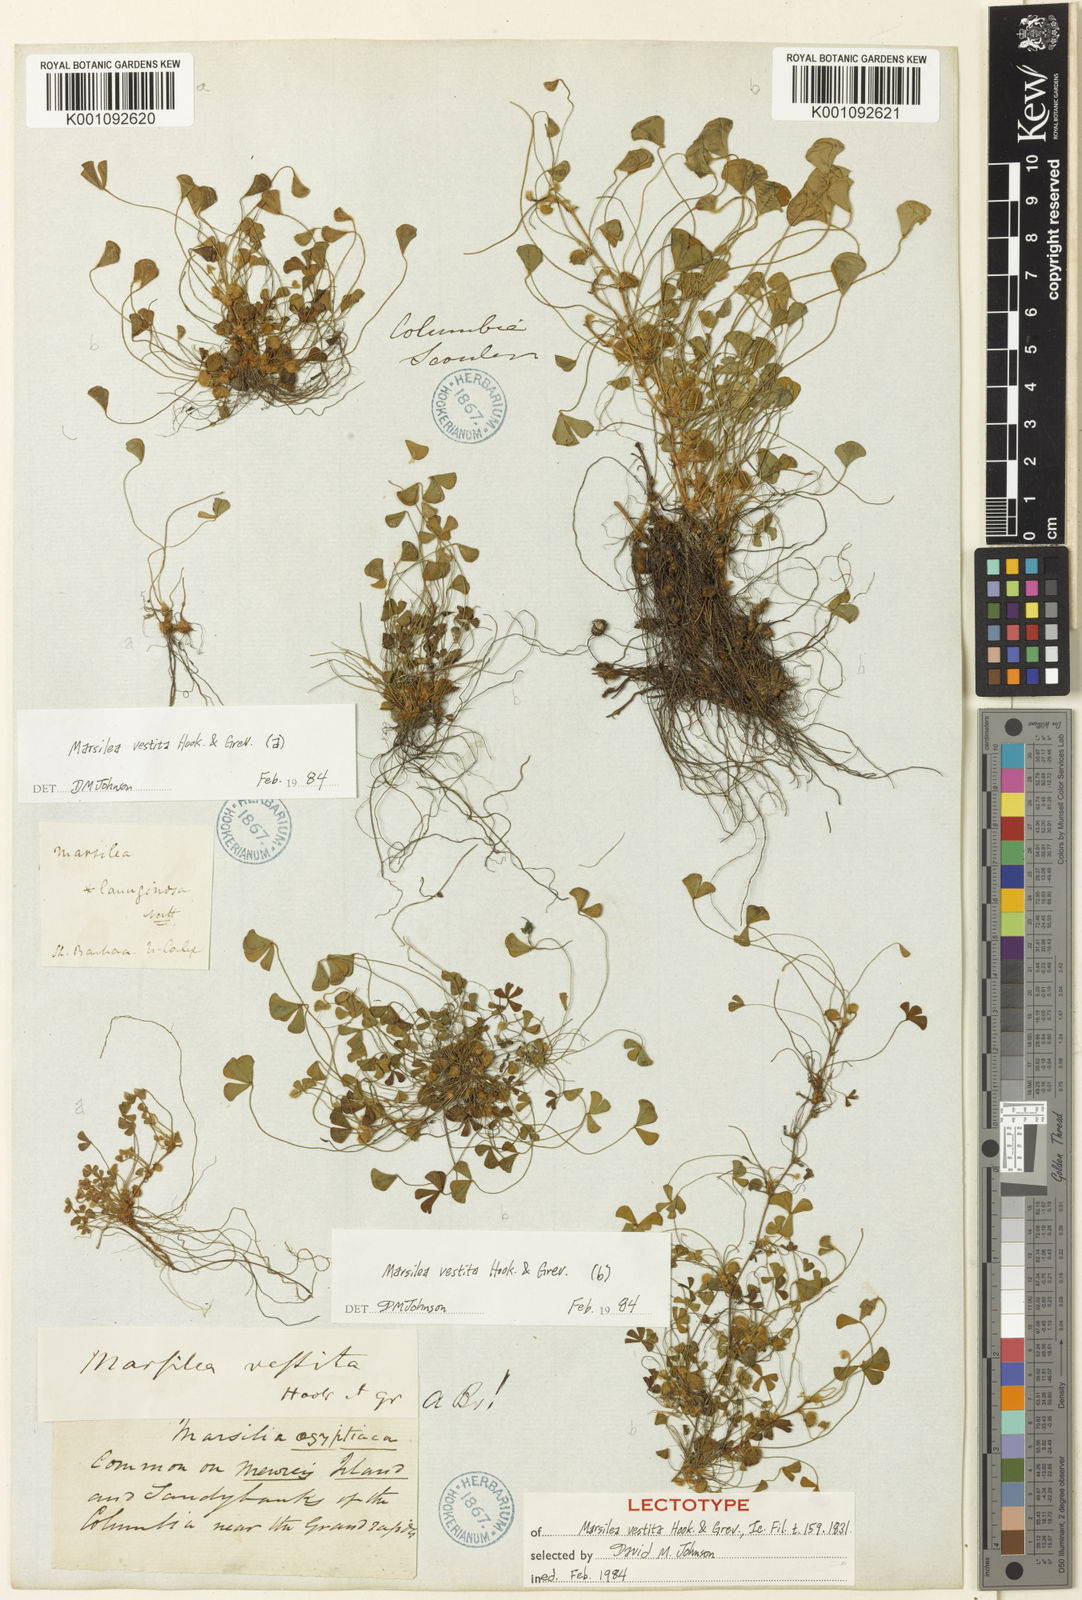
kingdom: Plantae
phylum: Tracheophyta
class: Polypodiopsida
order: Salviniales
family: Marsileaceae
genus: Marsilea
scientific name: Marsilea vestita
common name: Hooked-pepperwort
